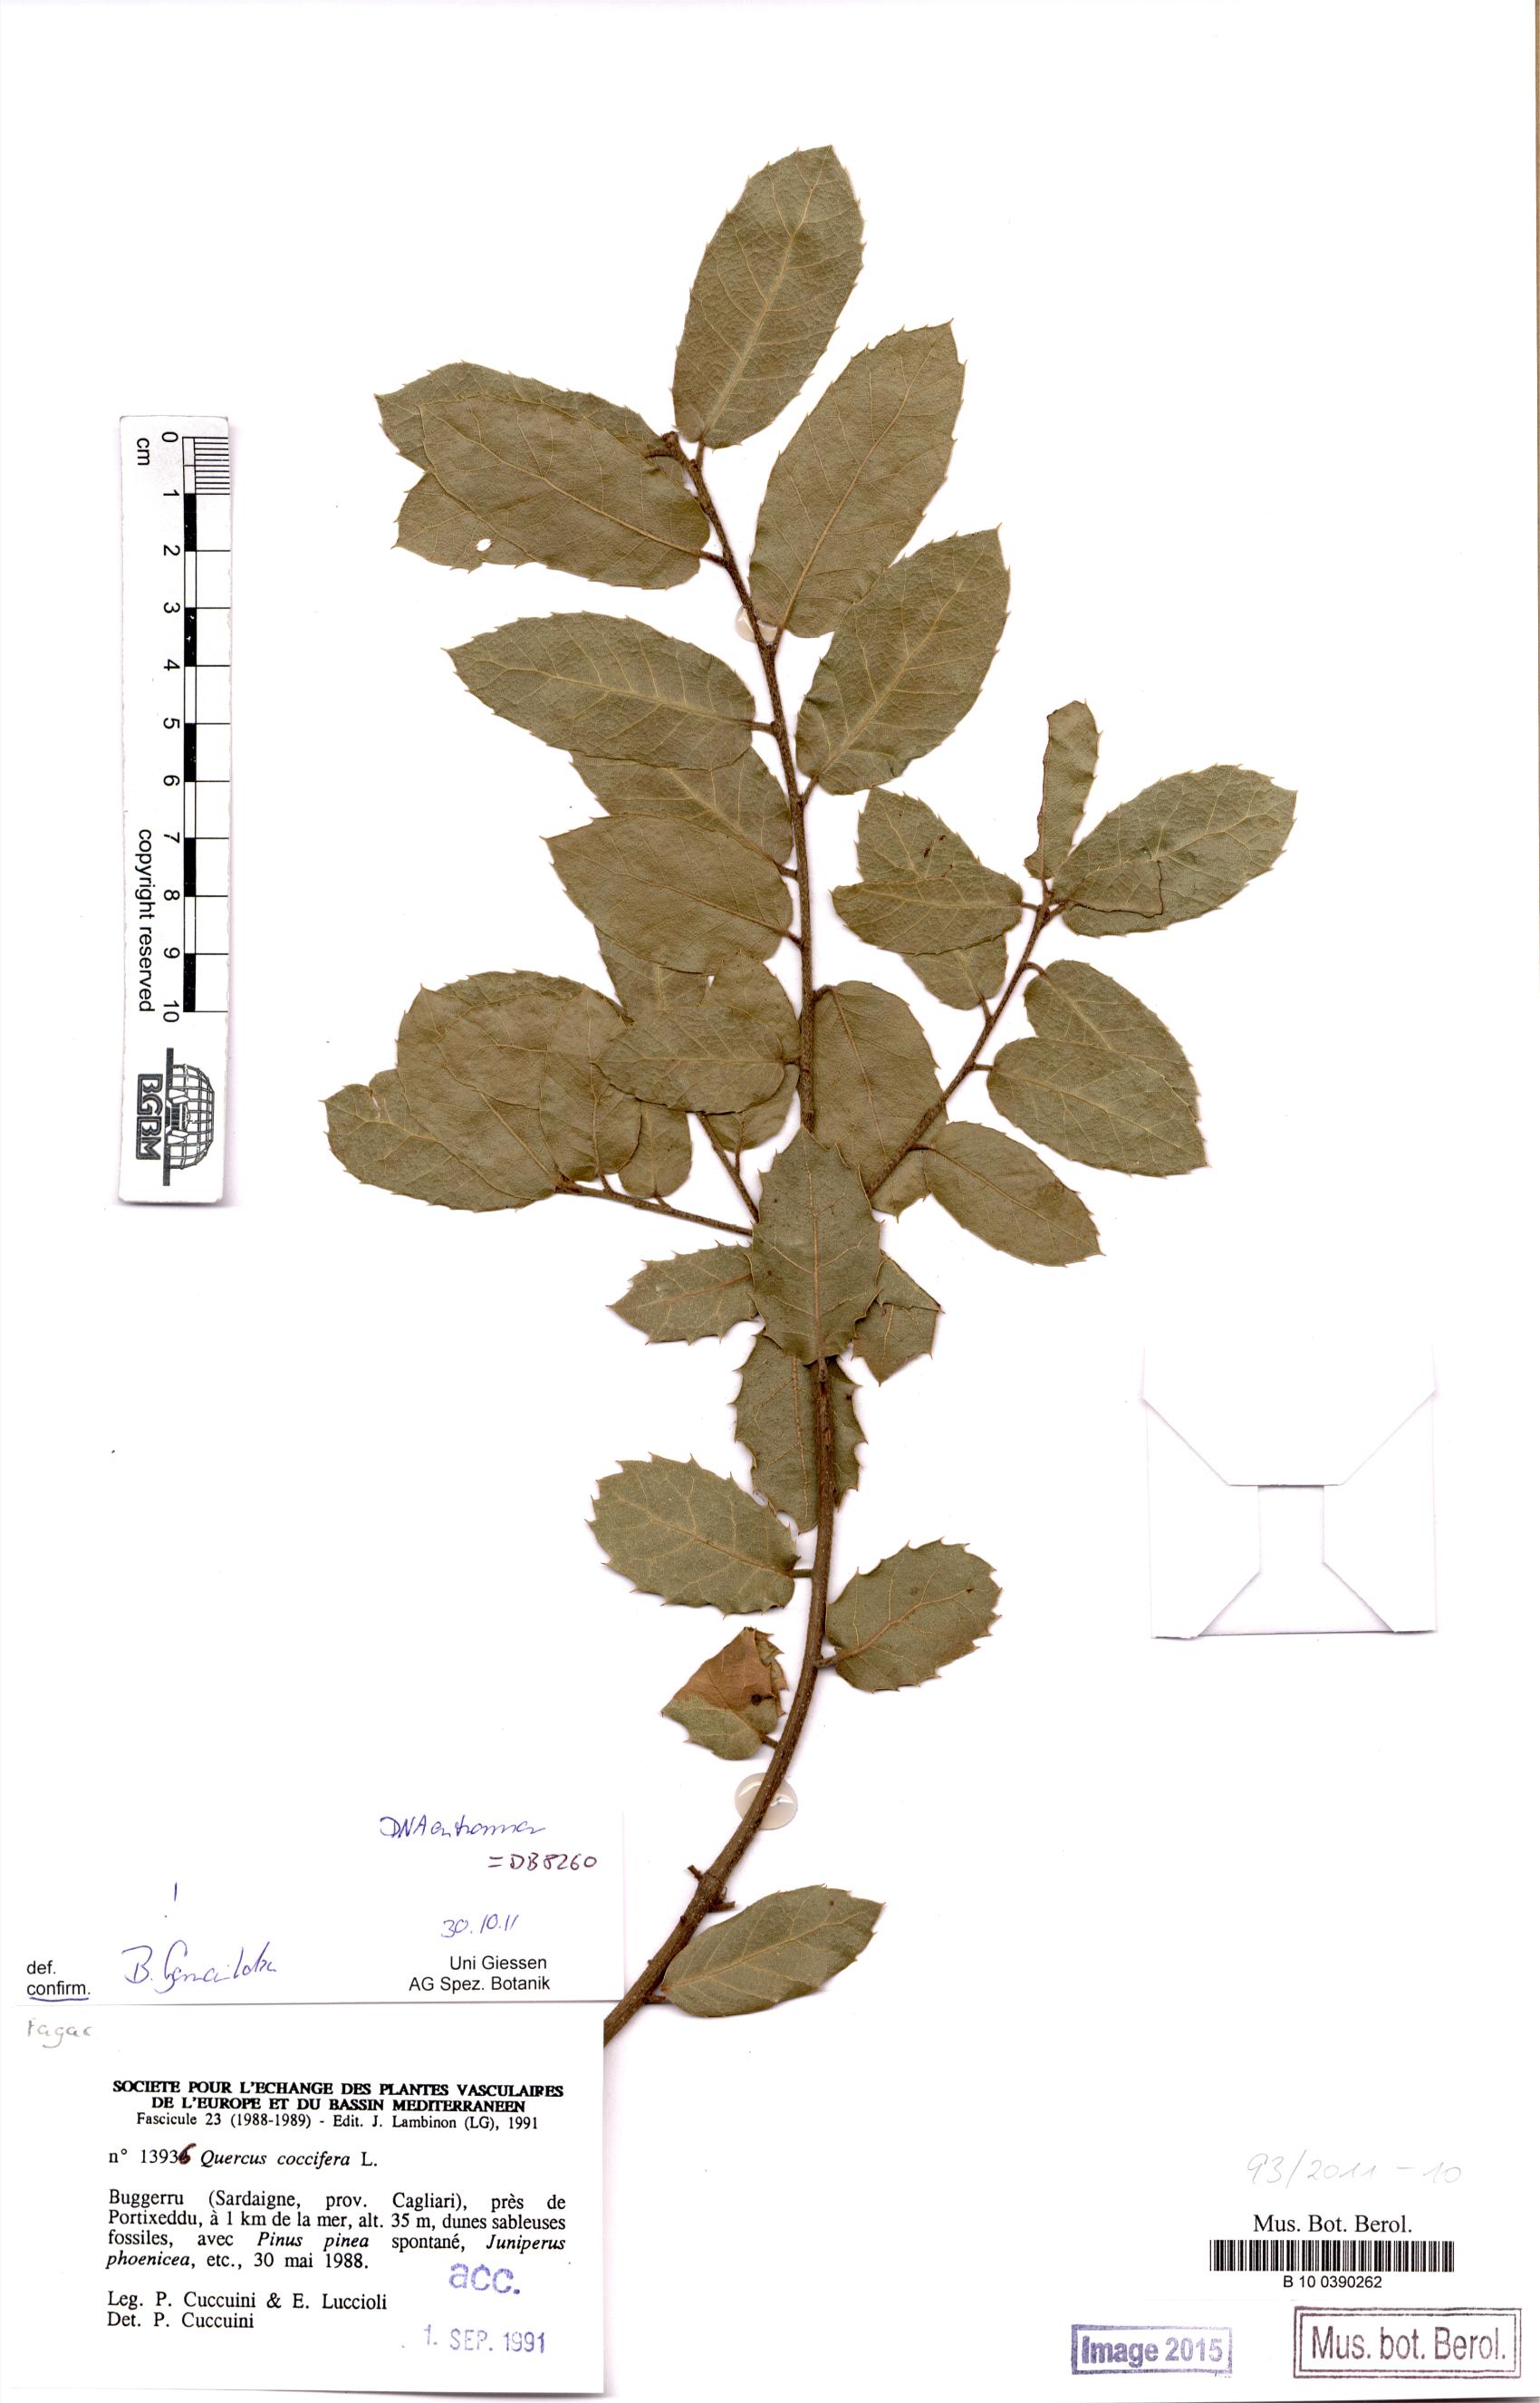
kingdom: Plantae
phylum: Tracheophyta
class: Magnoliopsida
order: Fagales
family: Fagaceae
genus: Quercus
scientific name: Quercus coccifera
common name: Kermes oak
